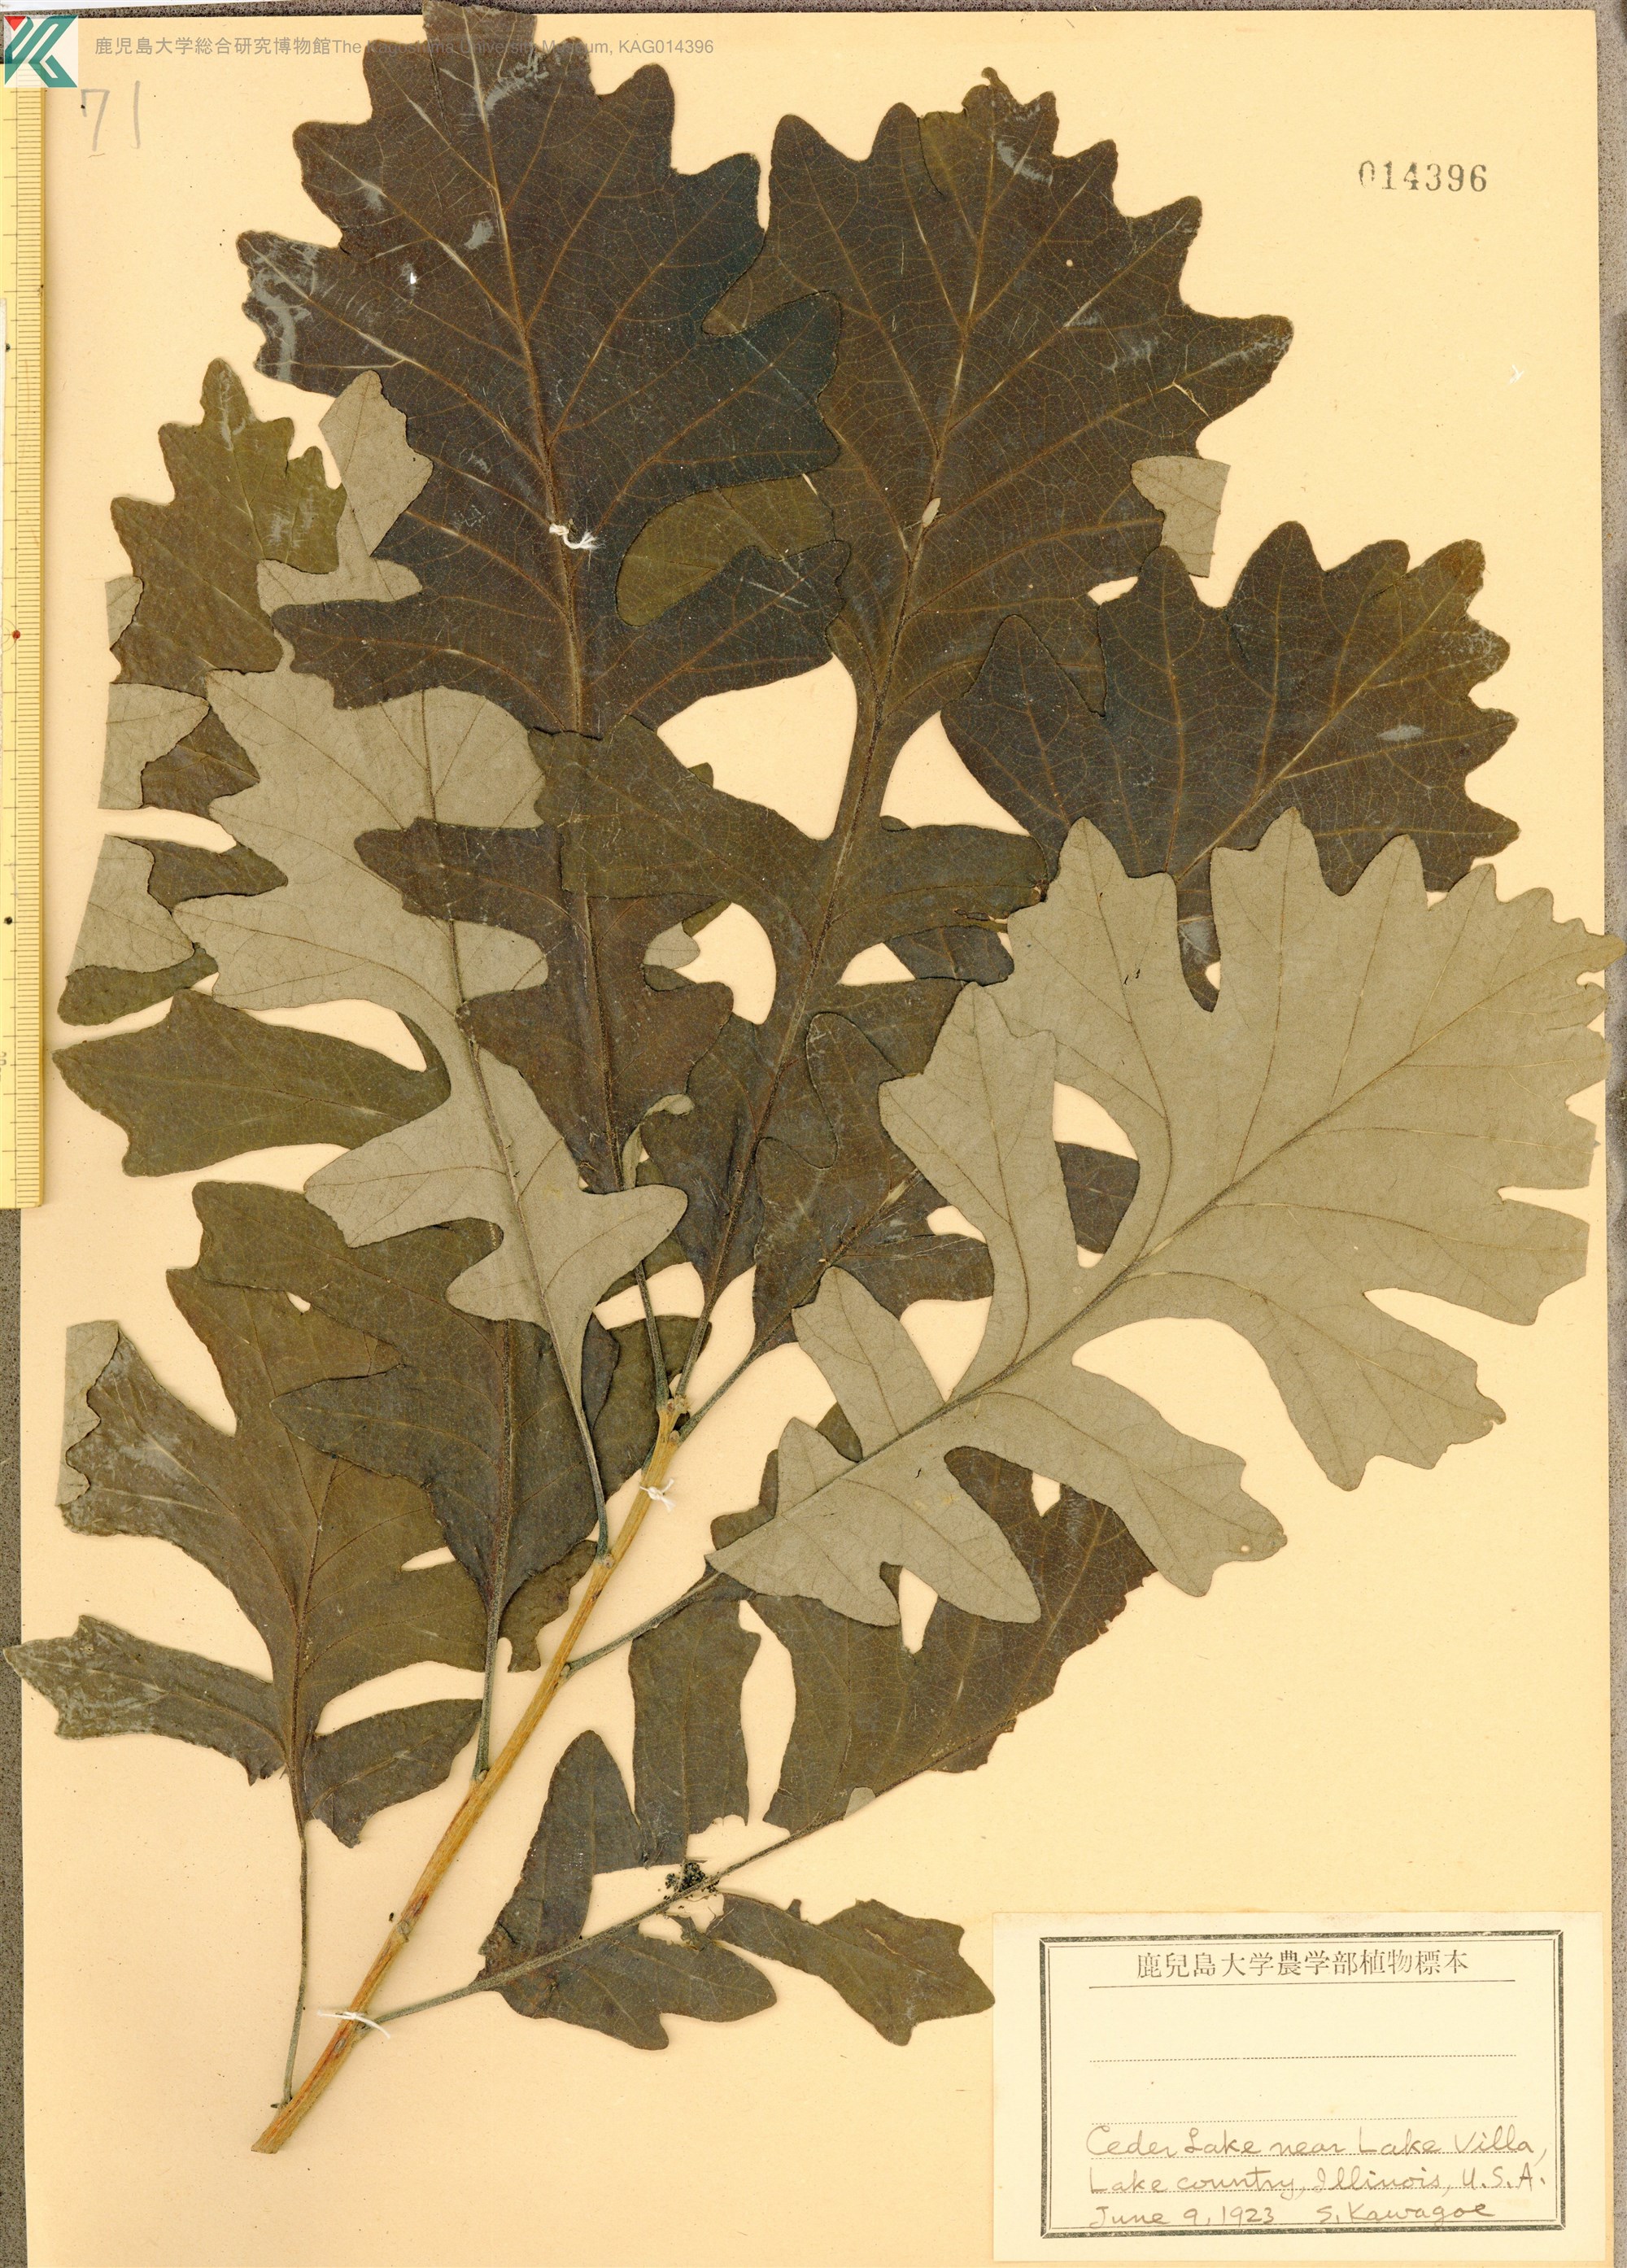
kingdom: Plantae
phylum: Tracheophyta
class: Magnoliopsida
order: Fagales
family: Fagaceae
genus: Quercus
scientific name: Quercus
